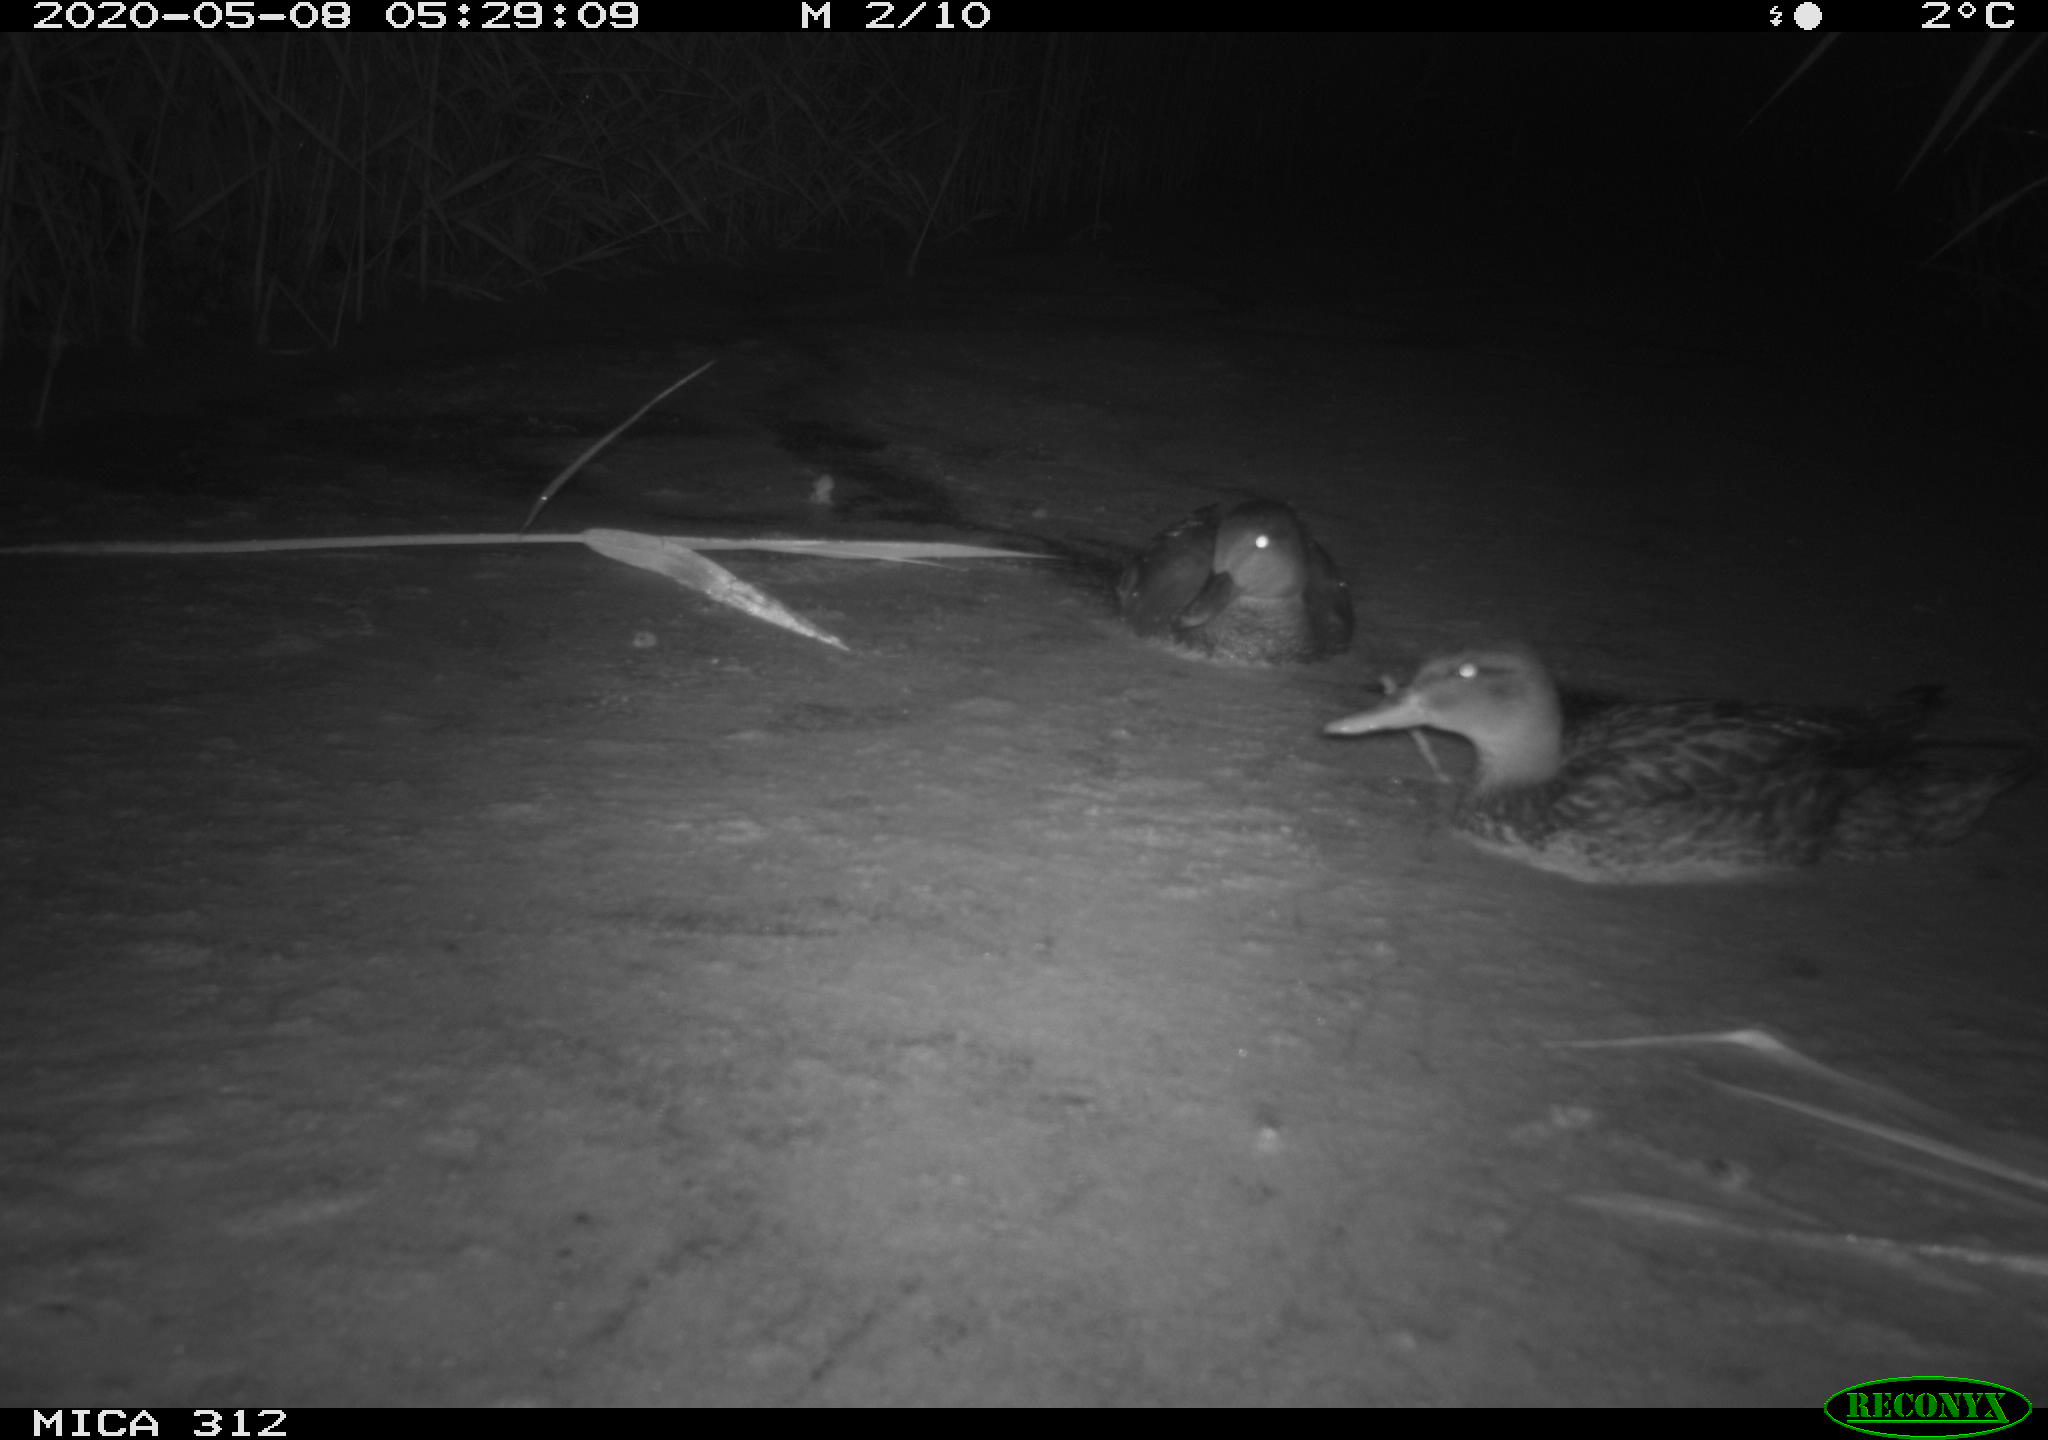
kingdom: Animalia
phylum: Chordata
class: Aves
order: Anseriformes
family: Anatidae
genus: Anas
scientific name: Anas platyrhynchos
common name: Mallard
